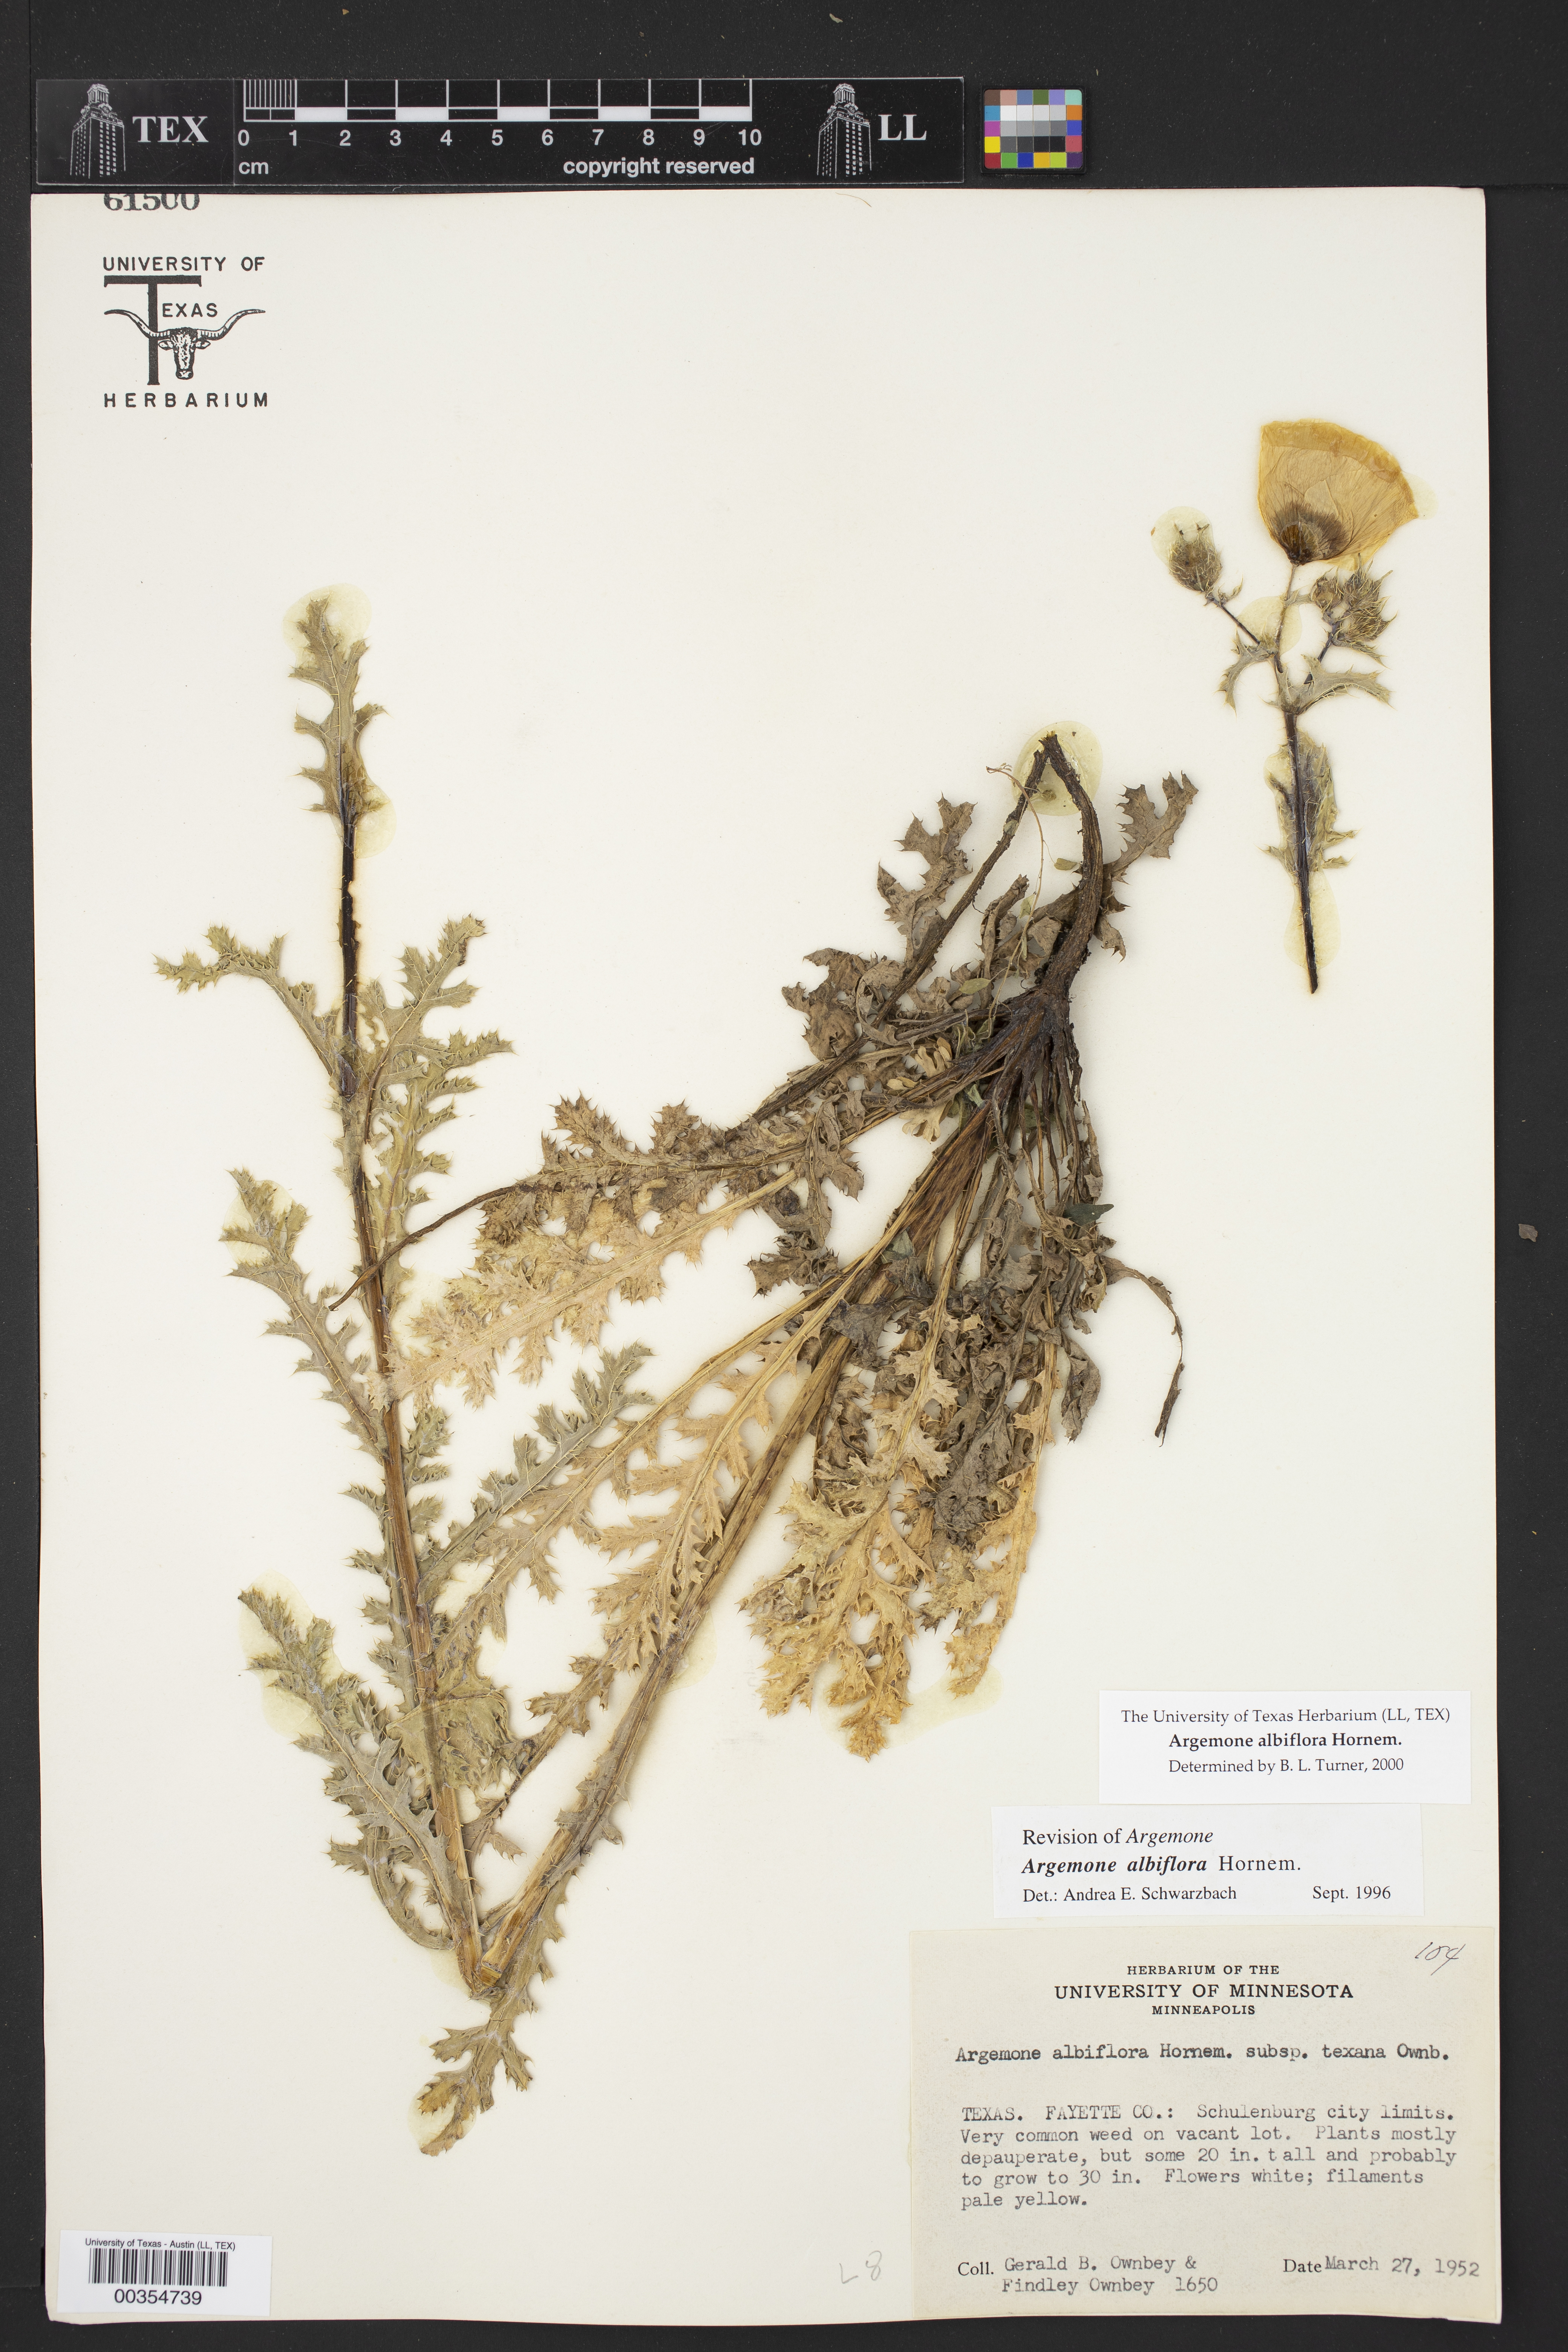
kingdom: Plantae
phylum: Tracheophyta
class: Magnoliopsida
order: Ranunculales
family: Papaveraceae
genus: Argemone
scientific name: Argemone albiflora
